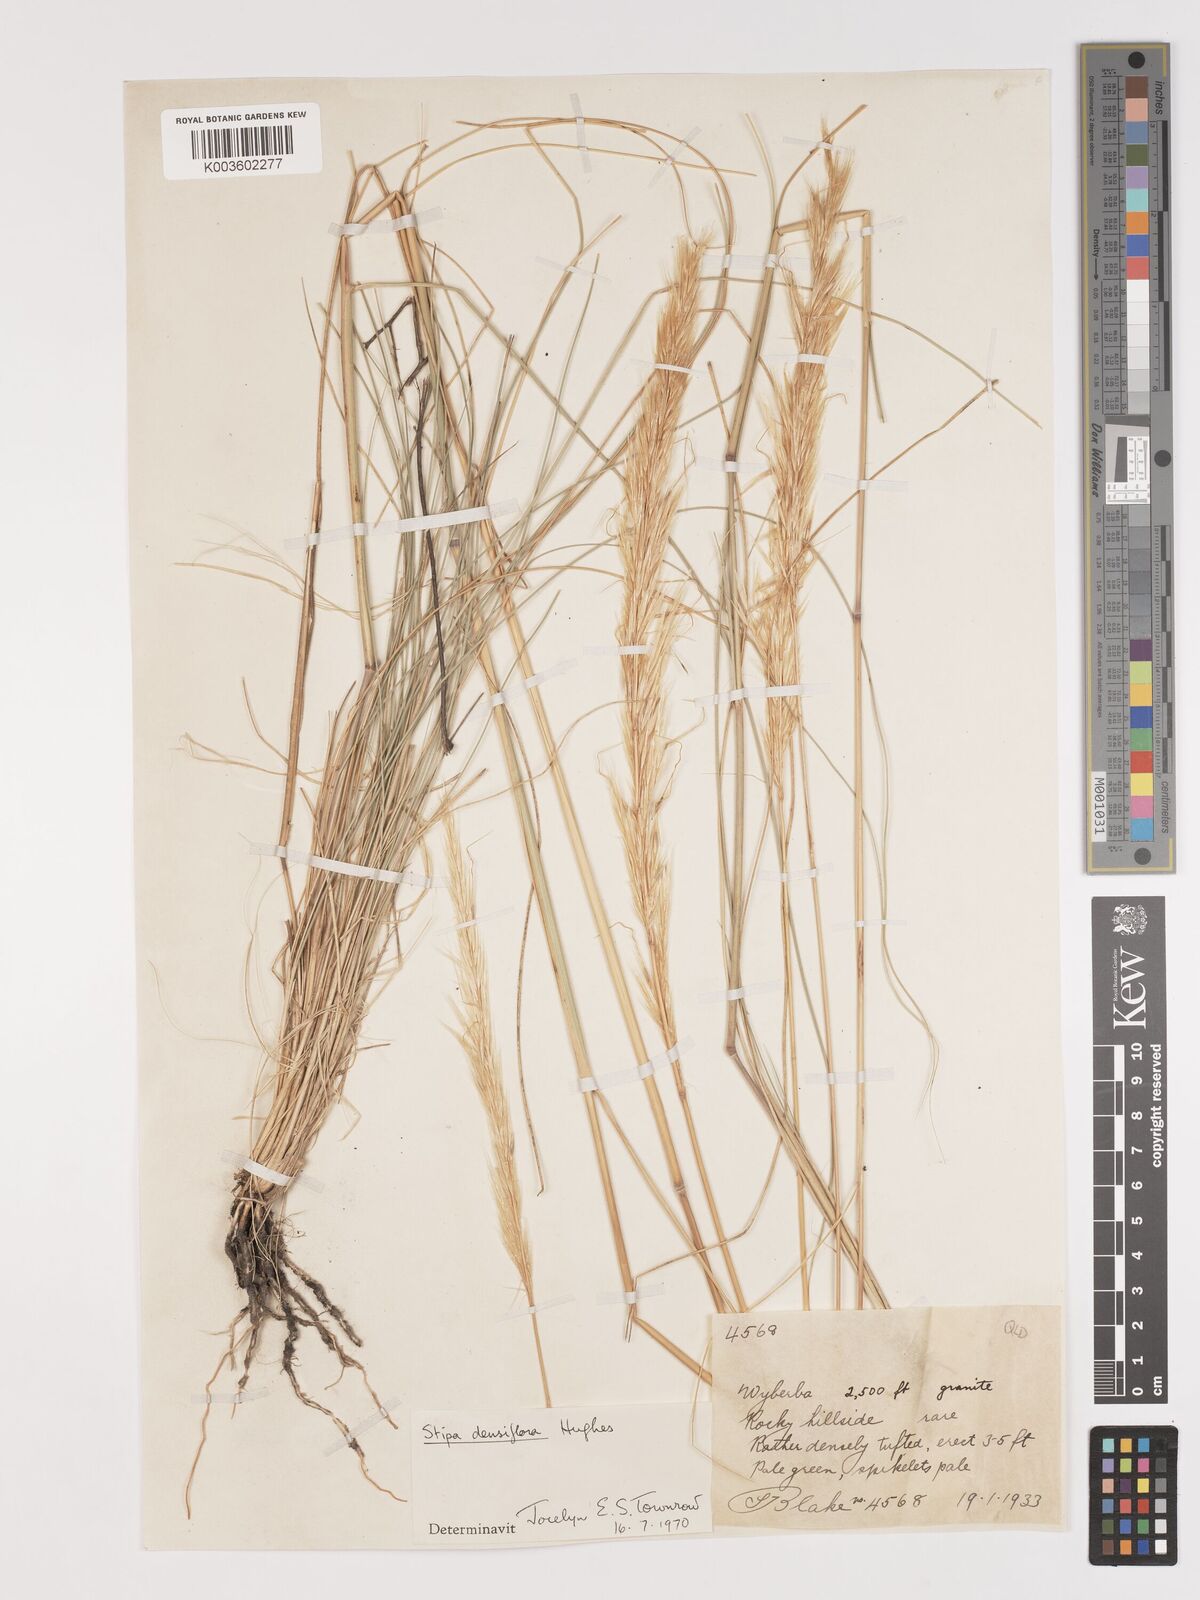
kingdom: Plantae
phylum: Tracheophyta
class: Liliopsida
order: Poales
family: Poaceae
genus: Stipa
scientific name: Stipa
